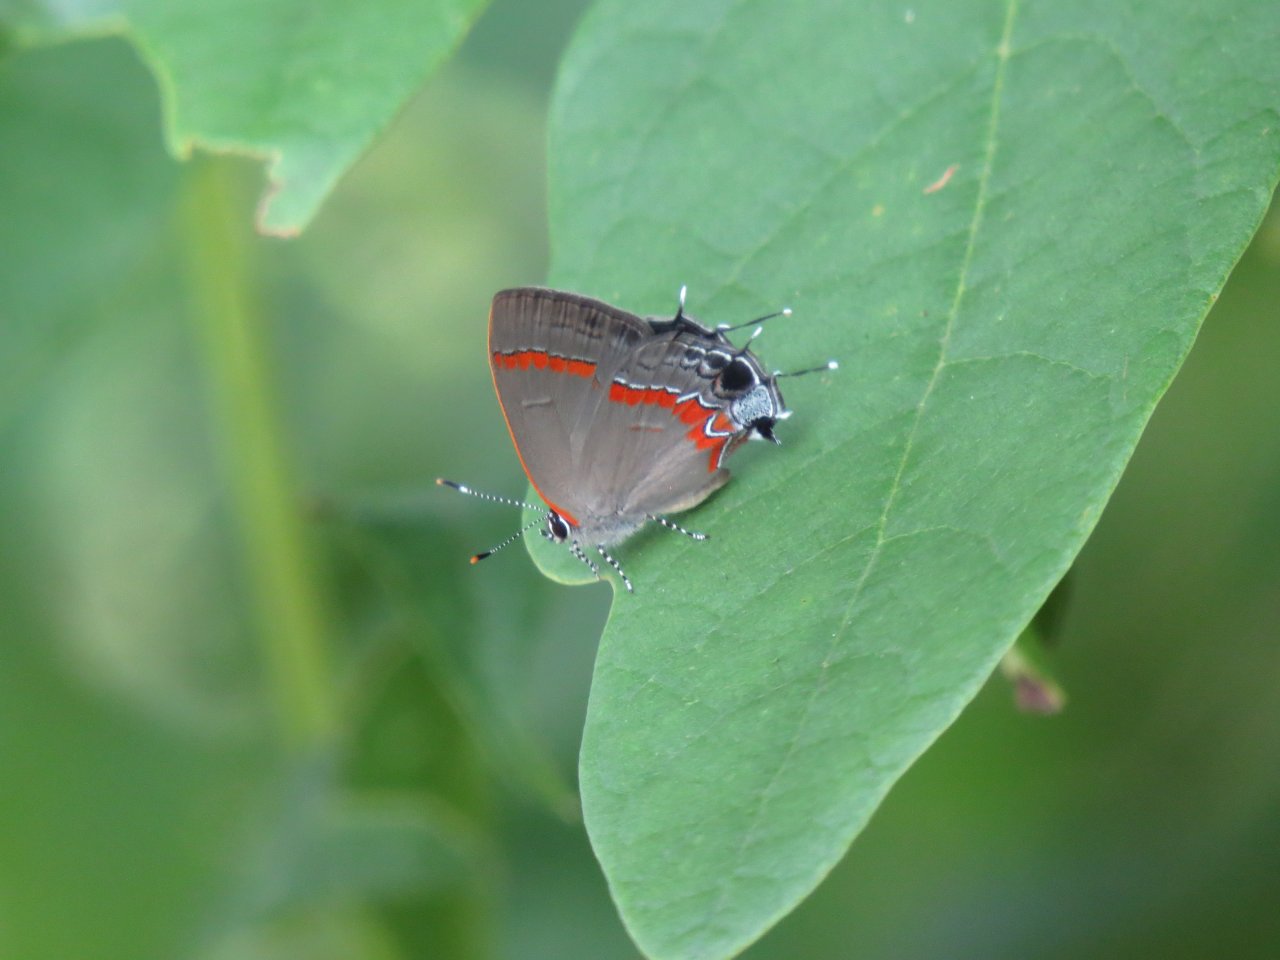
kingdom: Animalia
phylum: Arthropoda
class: Insecta
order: Lepidoptera
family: Lycaenidae
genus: Calycopis
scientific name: Calycopis cecrops
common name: Red-banded Hairstreak
